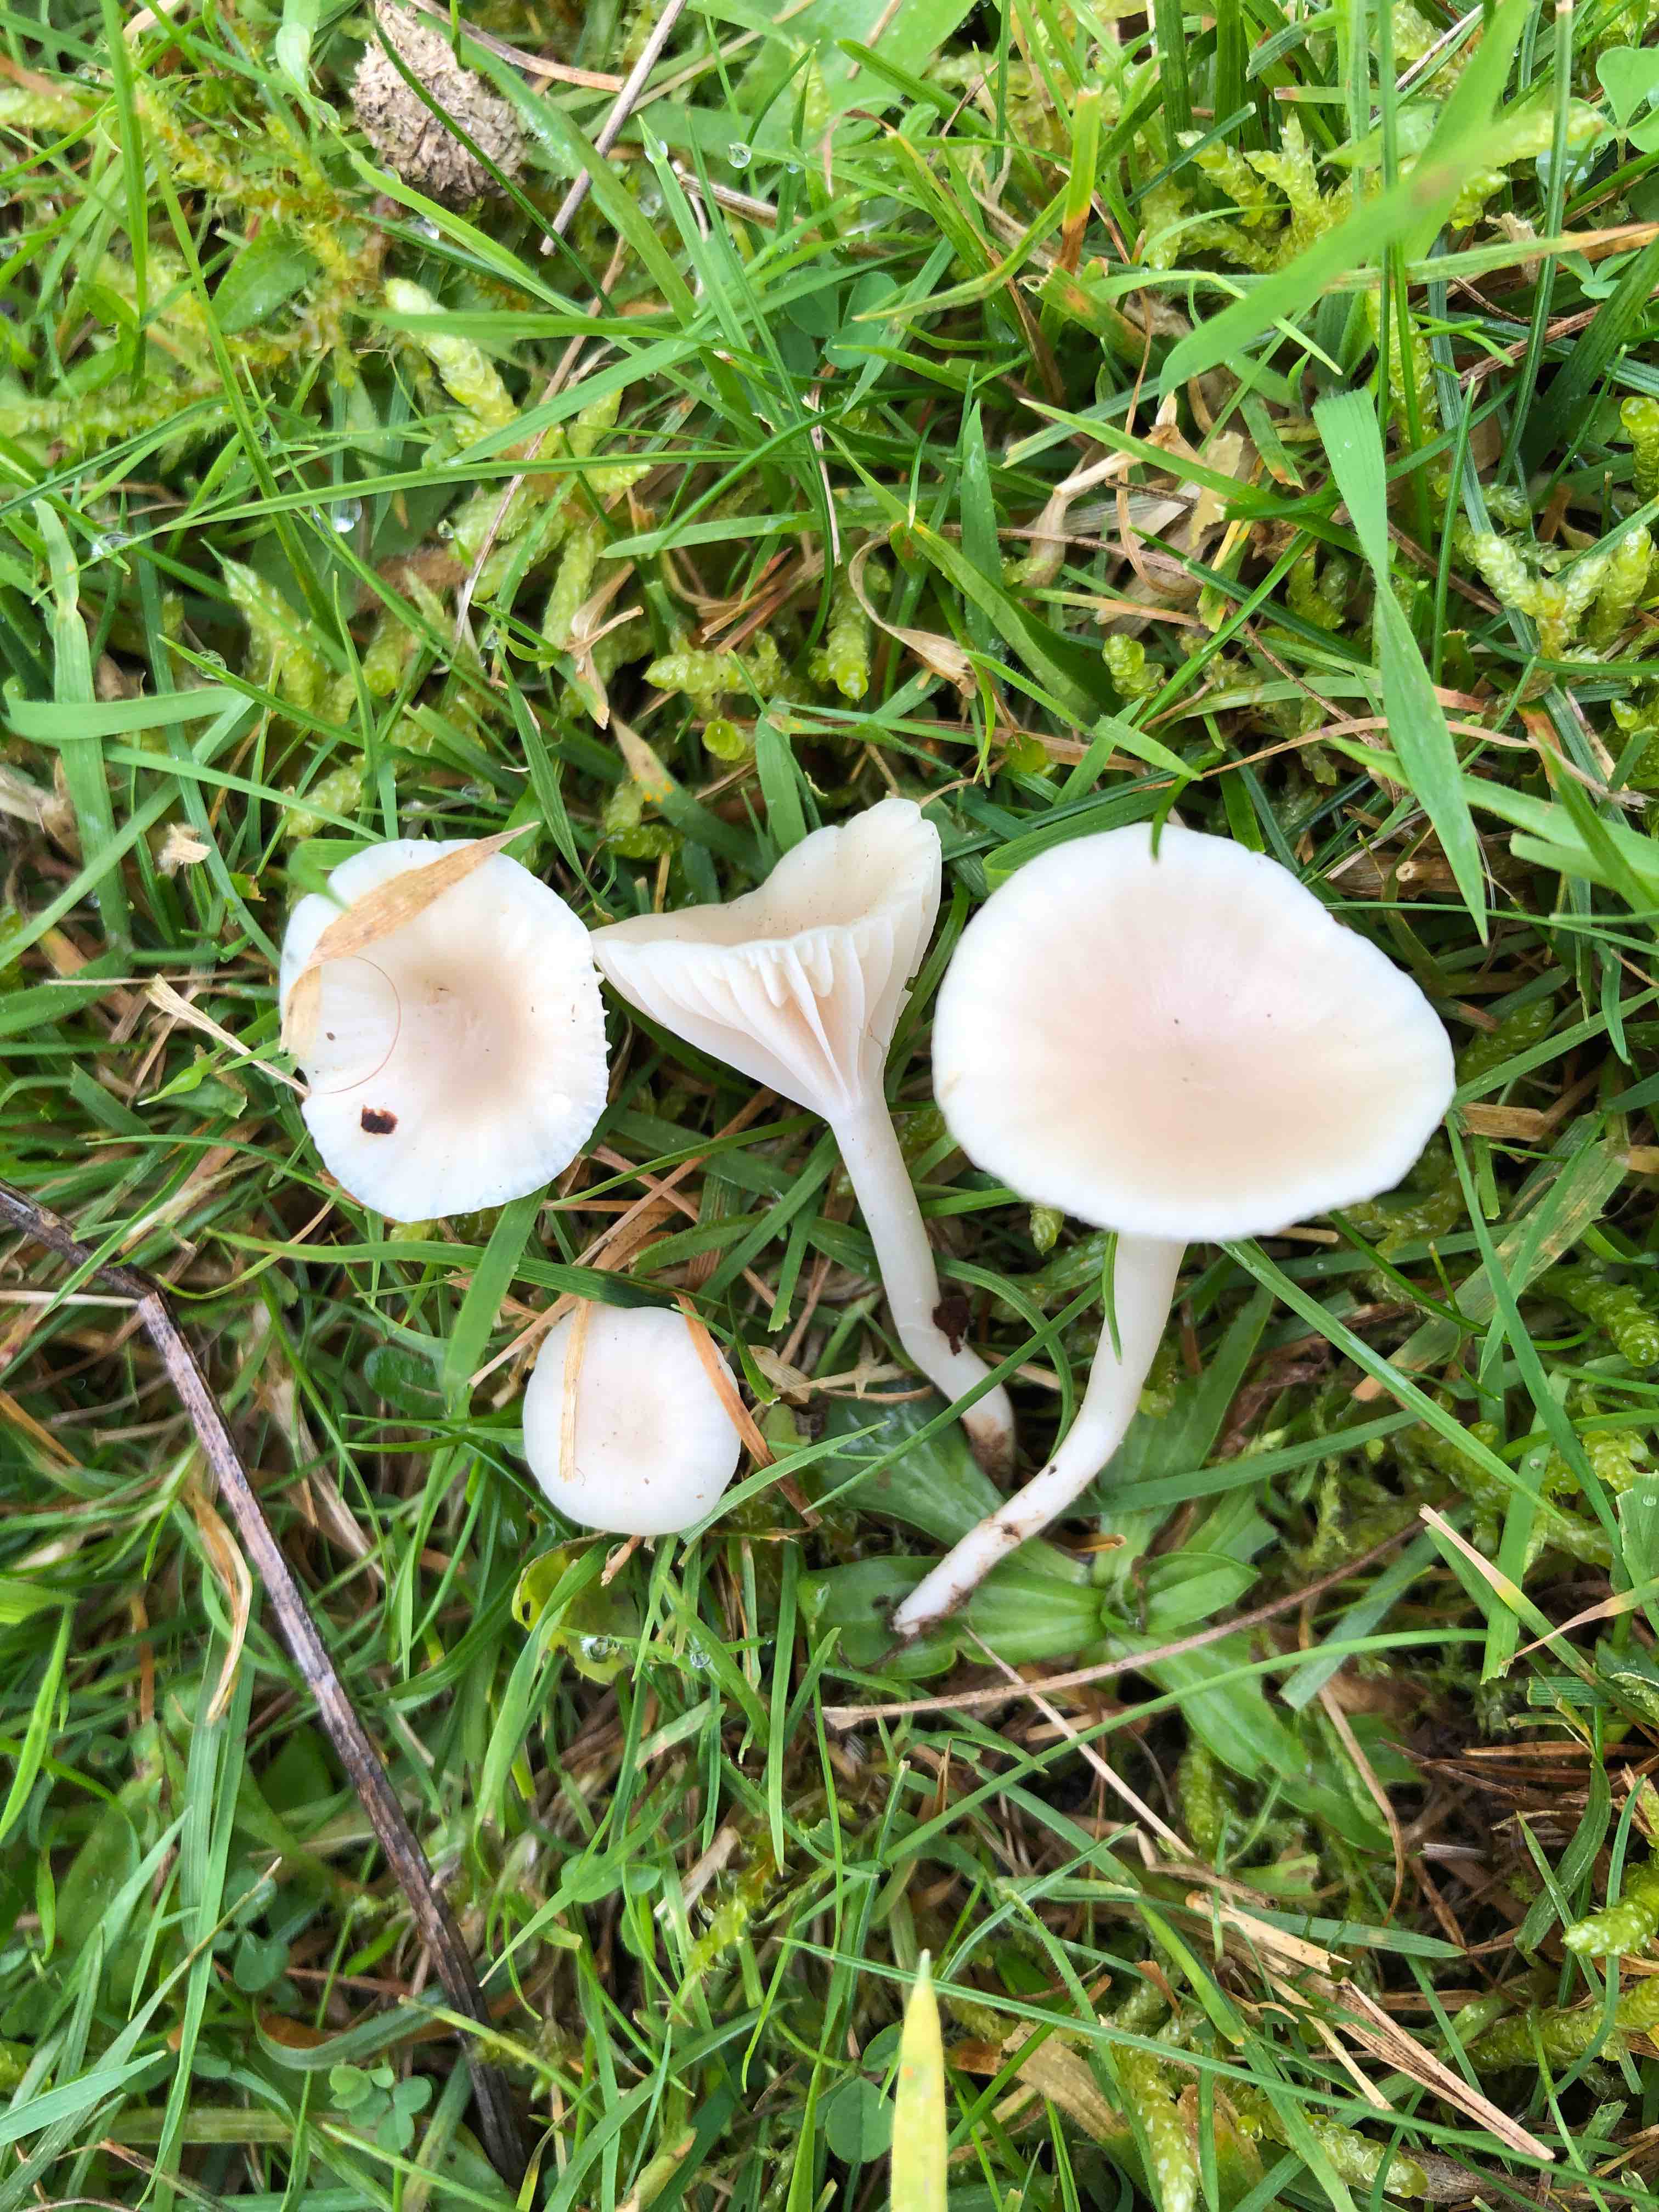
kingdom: Fungi
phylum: Basidiomycota
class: Agaricomycetes
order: Agaricales
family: Hygrophoraceae
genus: Cuphophyllus
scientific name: Cuphophyllus russocoriaceus
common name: ruslæder-vokshat
